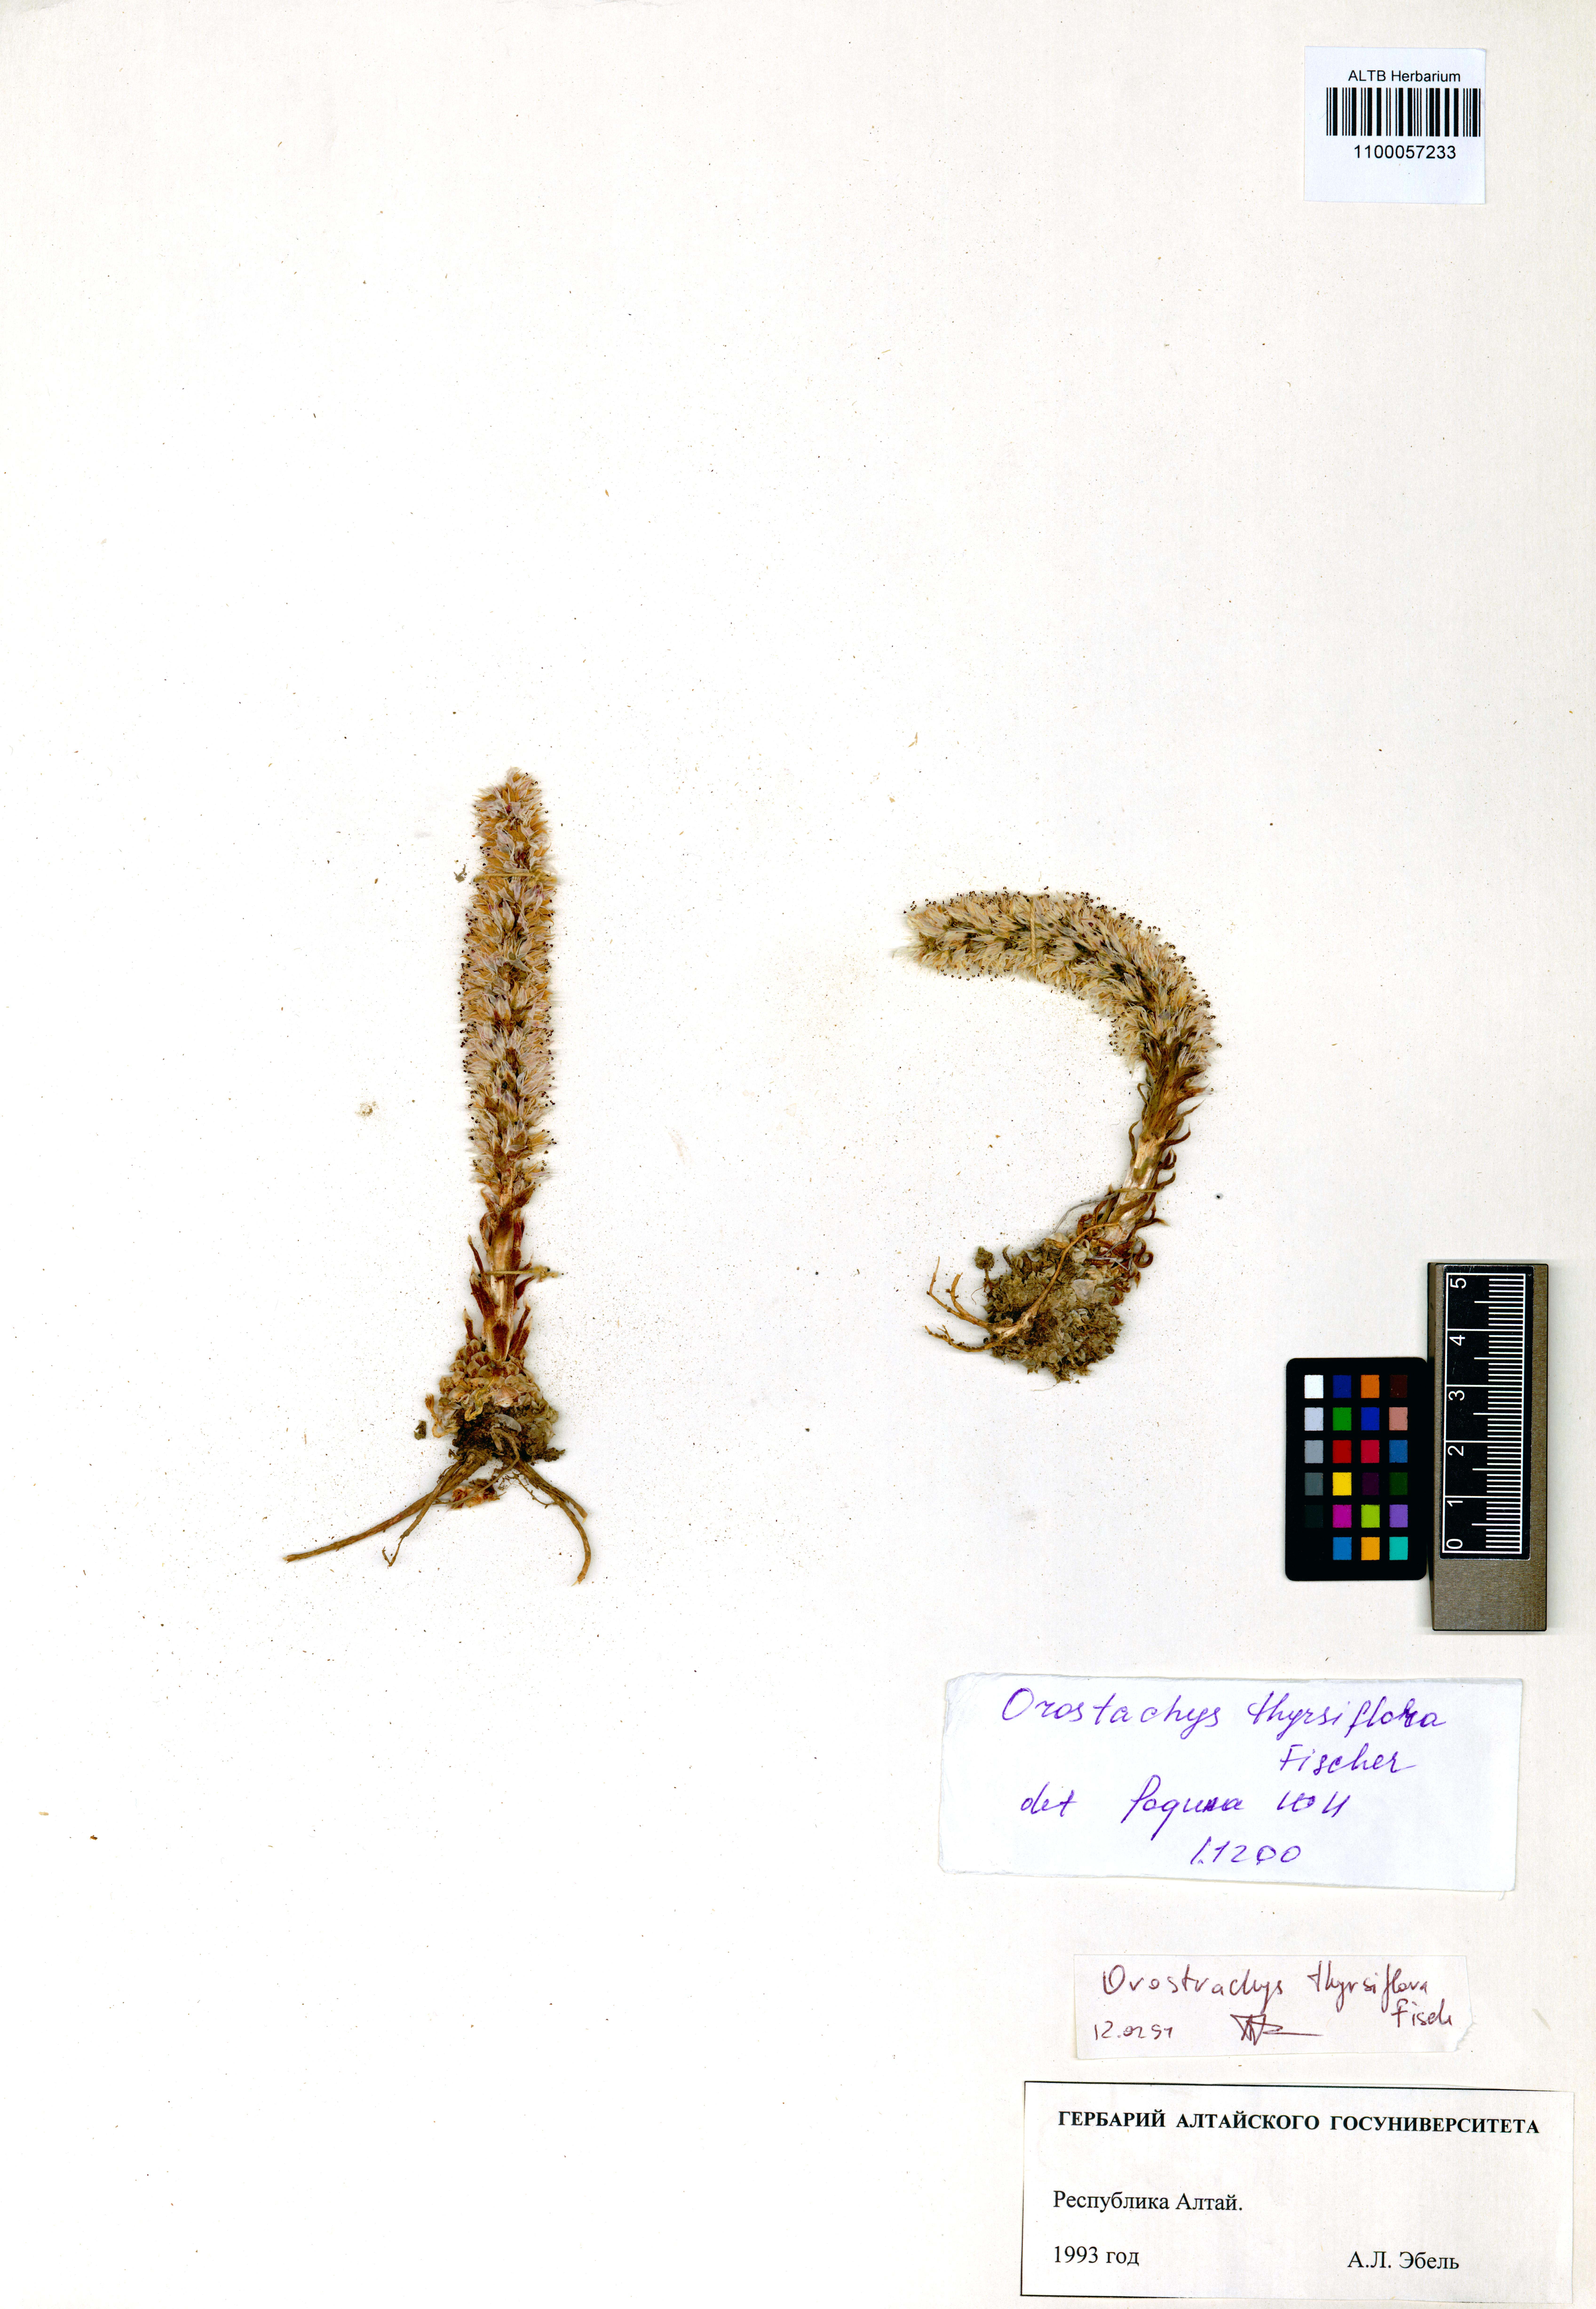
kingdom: Plantae
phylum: Tracheophyta
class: Magnoliopsida
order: Saxifragales
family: Crassulaceae
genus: Orostachys
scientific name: Orostachys thyrsiflora
